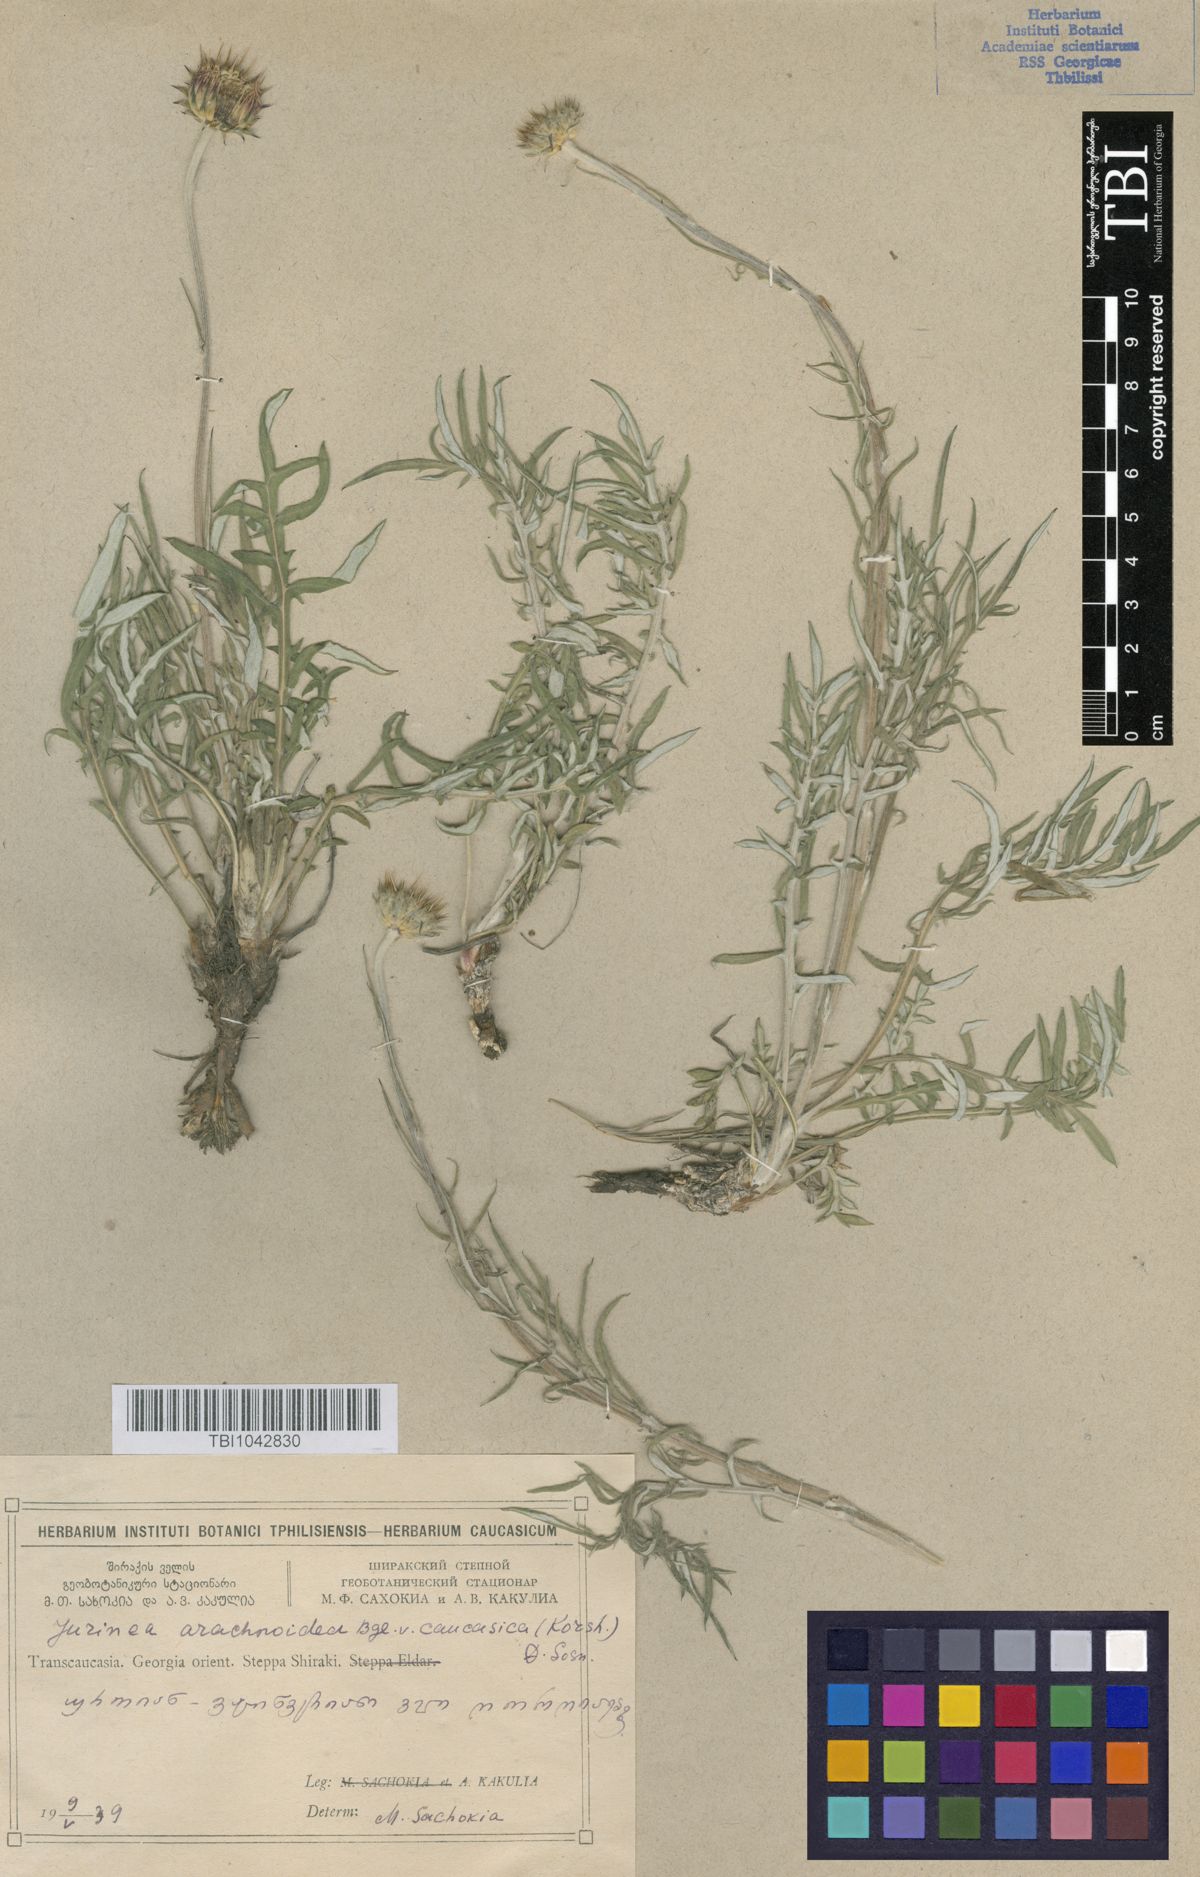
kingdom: Plantae
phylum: Tracheophyta
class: Magnoliopsida
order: Asterales
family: Asteraceae
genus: Jurinea
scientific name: Jurinea blanda
